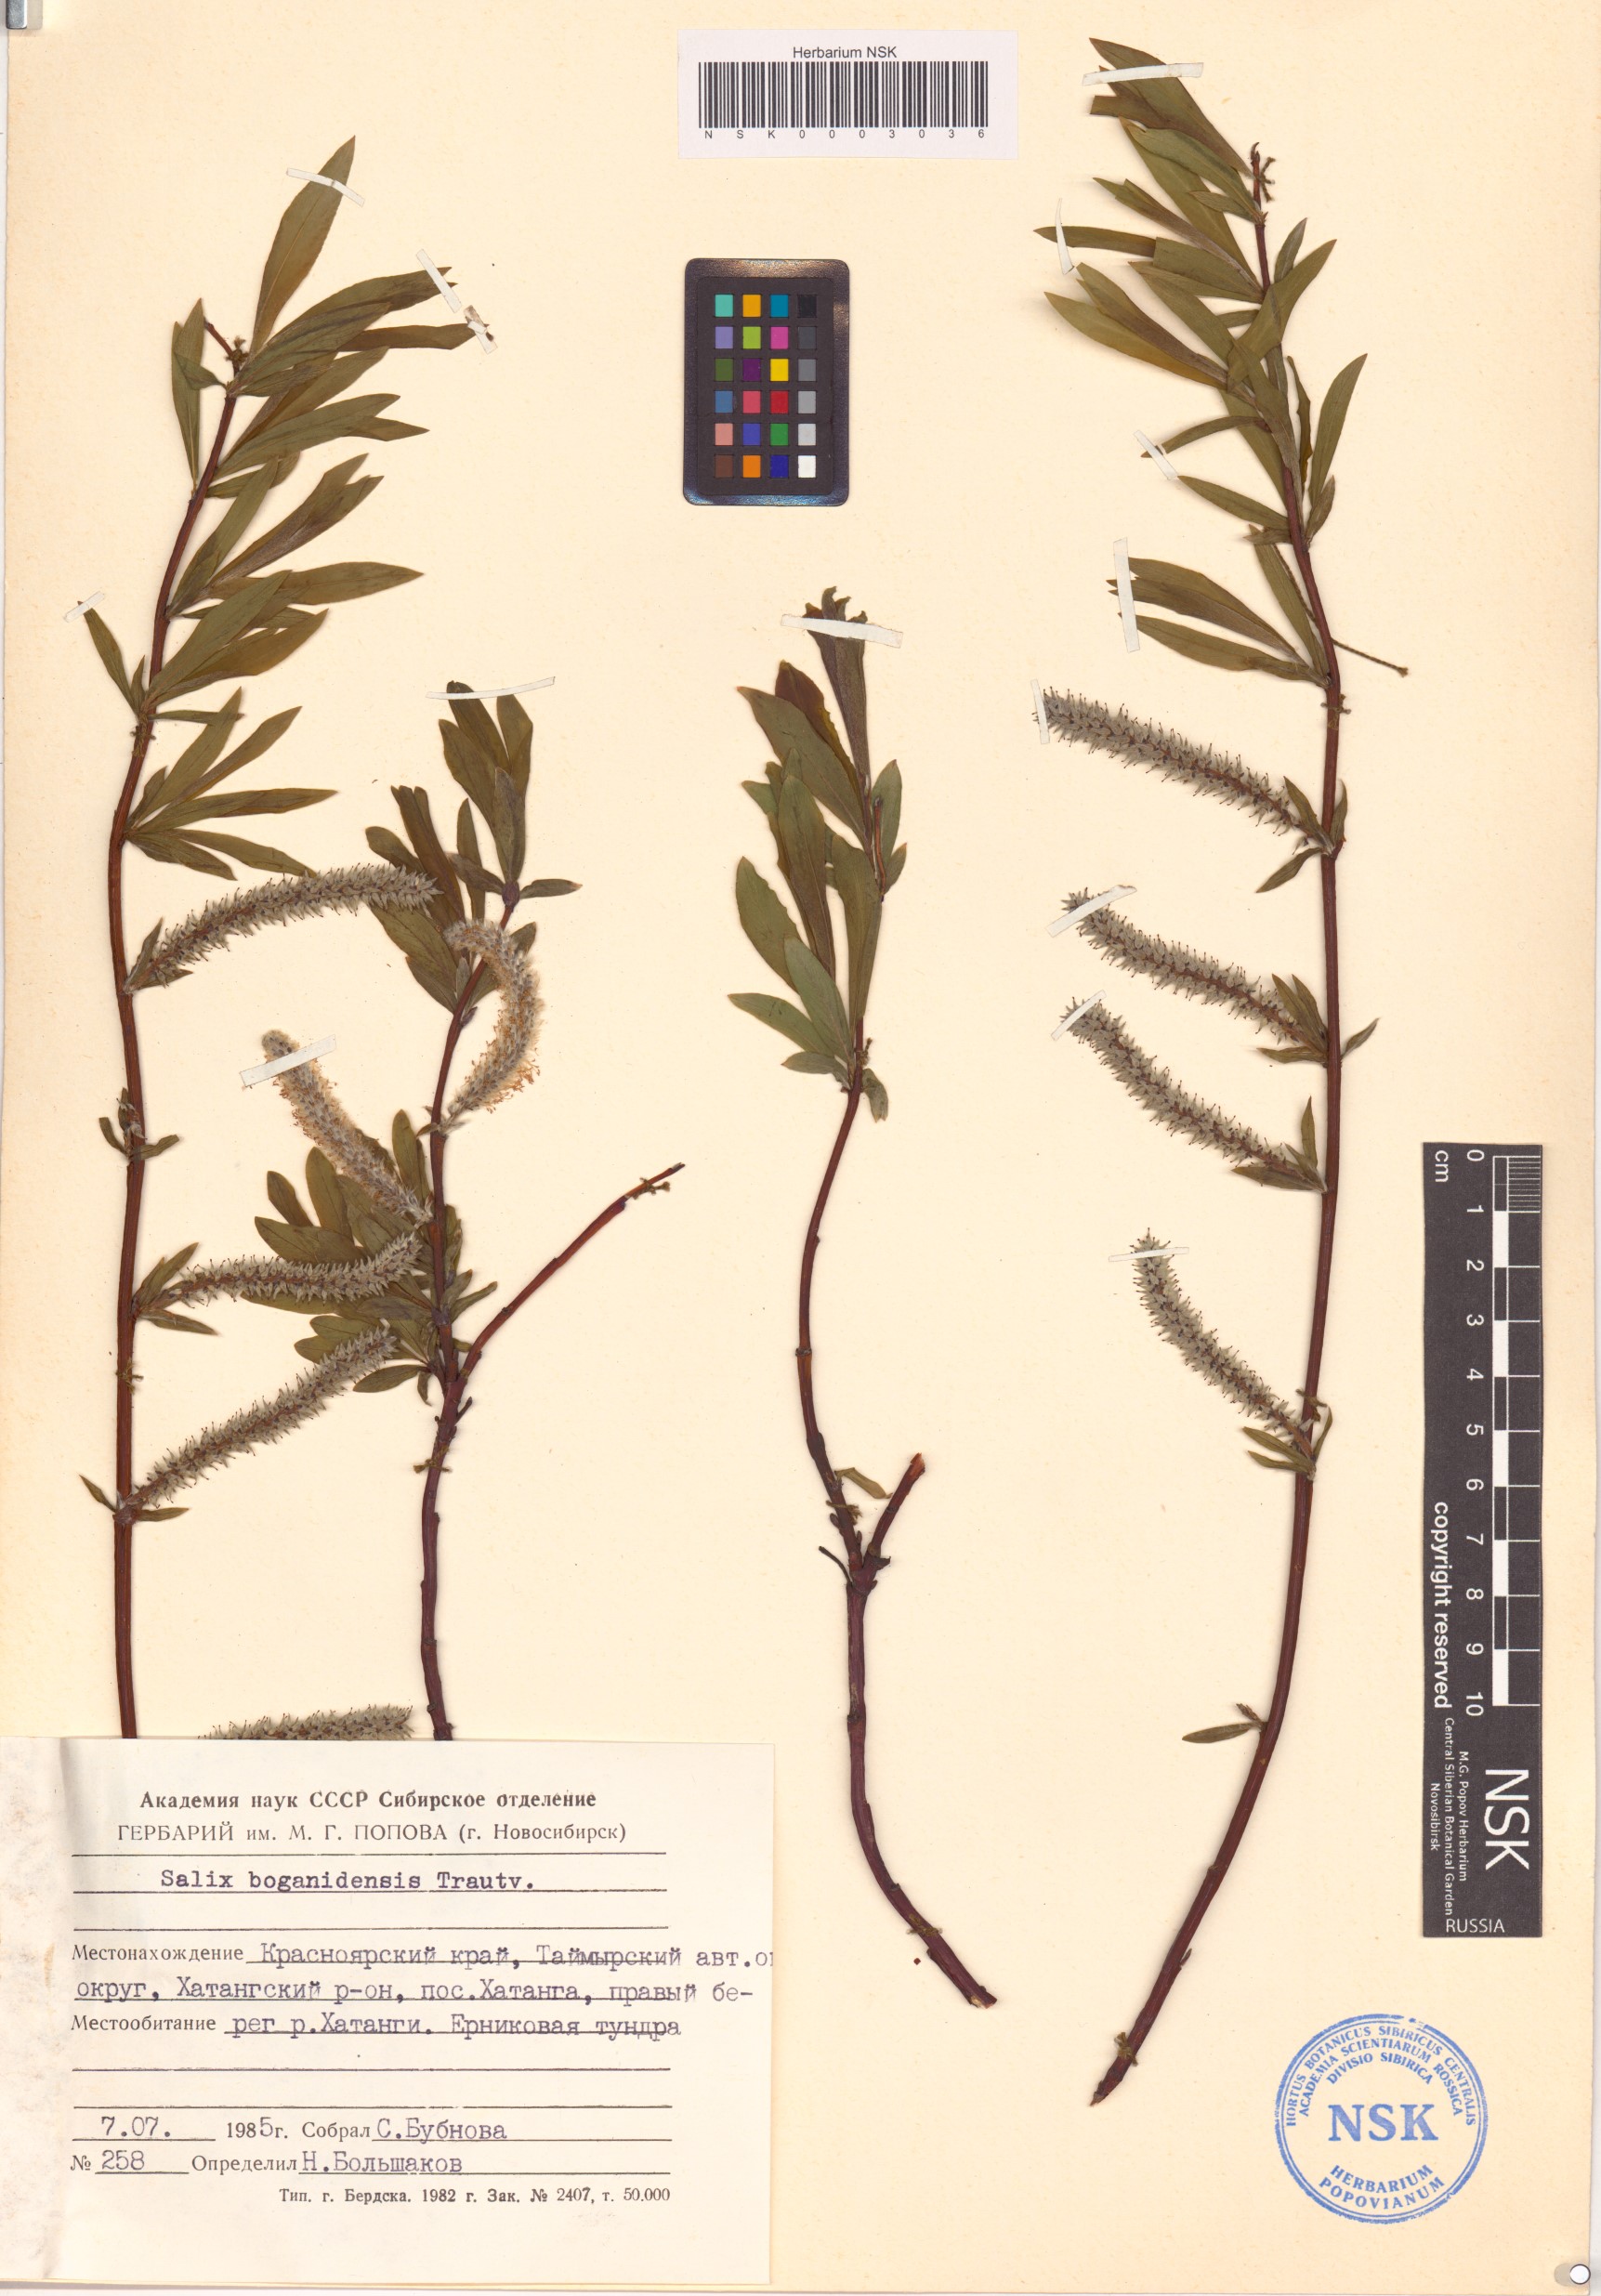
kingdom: Plantae
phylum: Tracheophyta
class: Magnoliopsida
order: Malpighiales
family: Salicaceae
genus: Salix
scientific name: Salix boganidensis
